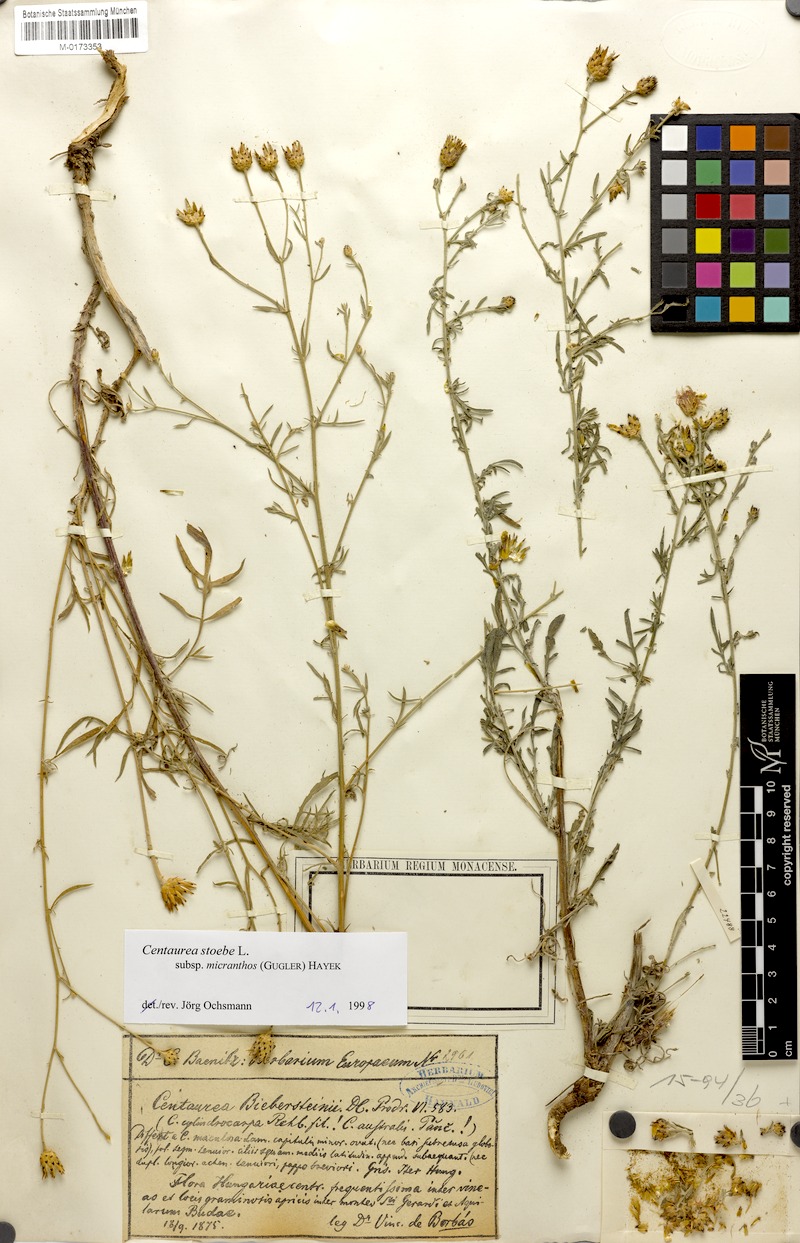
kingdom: Plantae
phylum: Tracheophyta
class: Magnoliopsida
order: Asterales
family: Asteraceae
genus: Centaurea
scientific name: Centaurea australis
